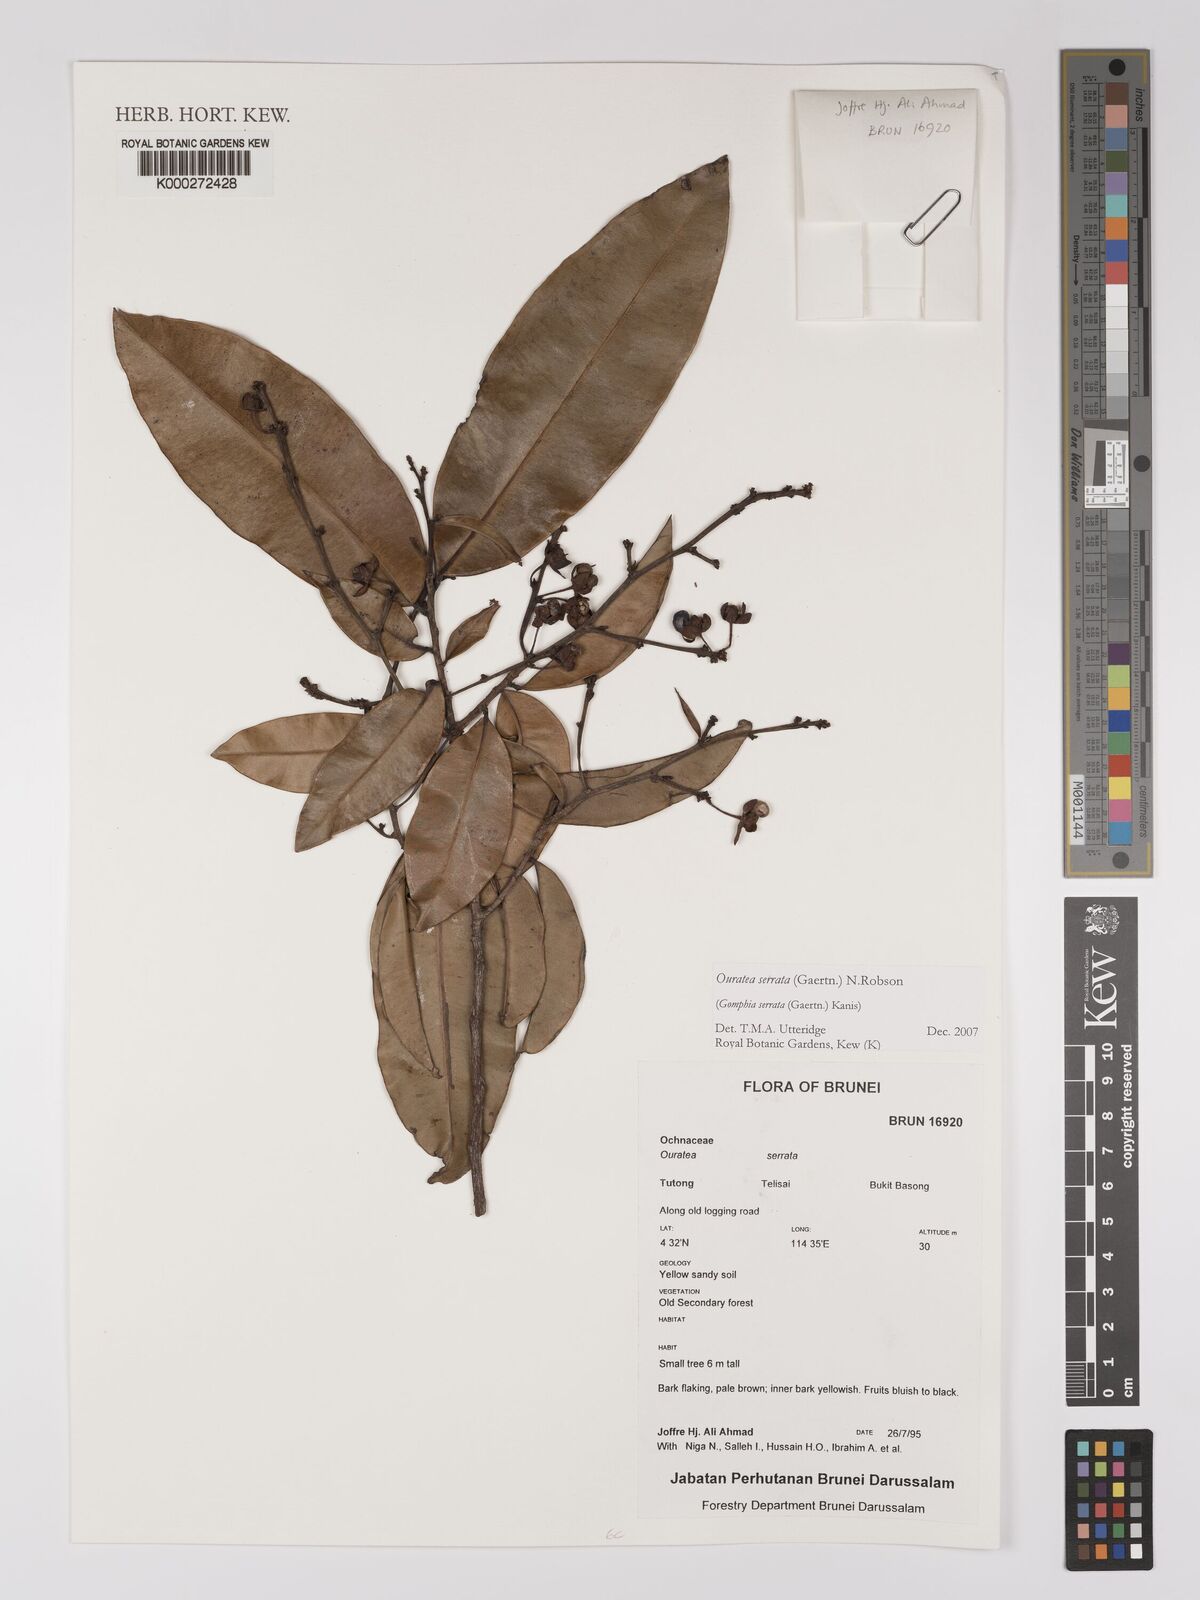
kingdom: Plantae
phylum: Tracheophyta
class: Magnoliopsida
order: Malpighiales
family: Ochnaceae
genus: Gomphia
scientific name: Gomphia serrata
